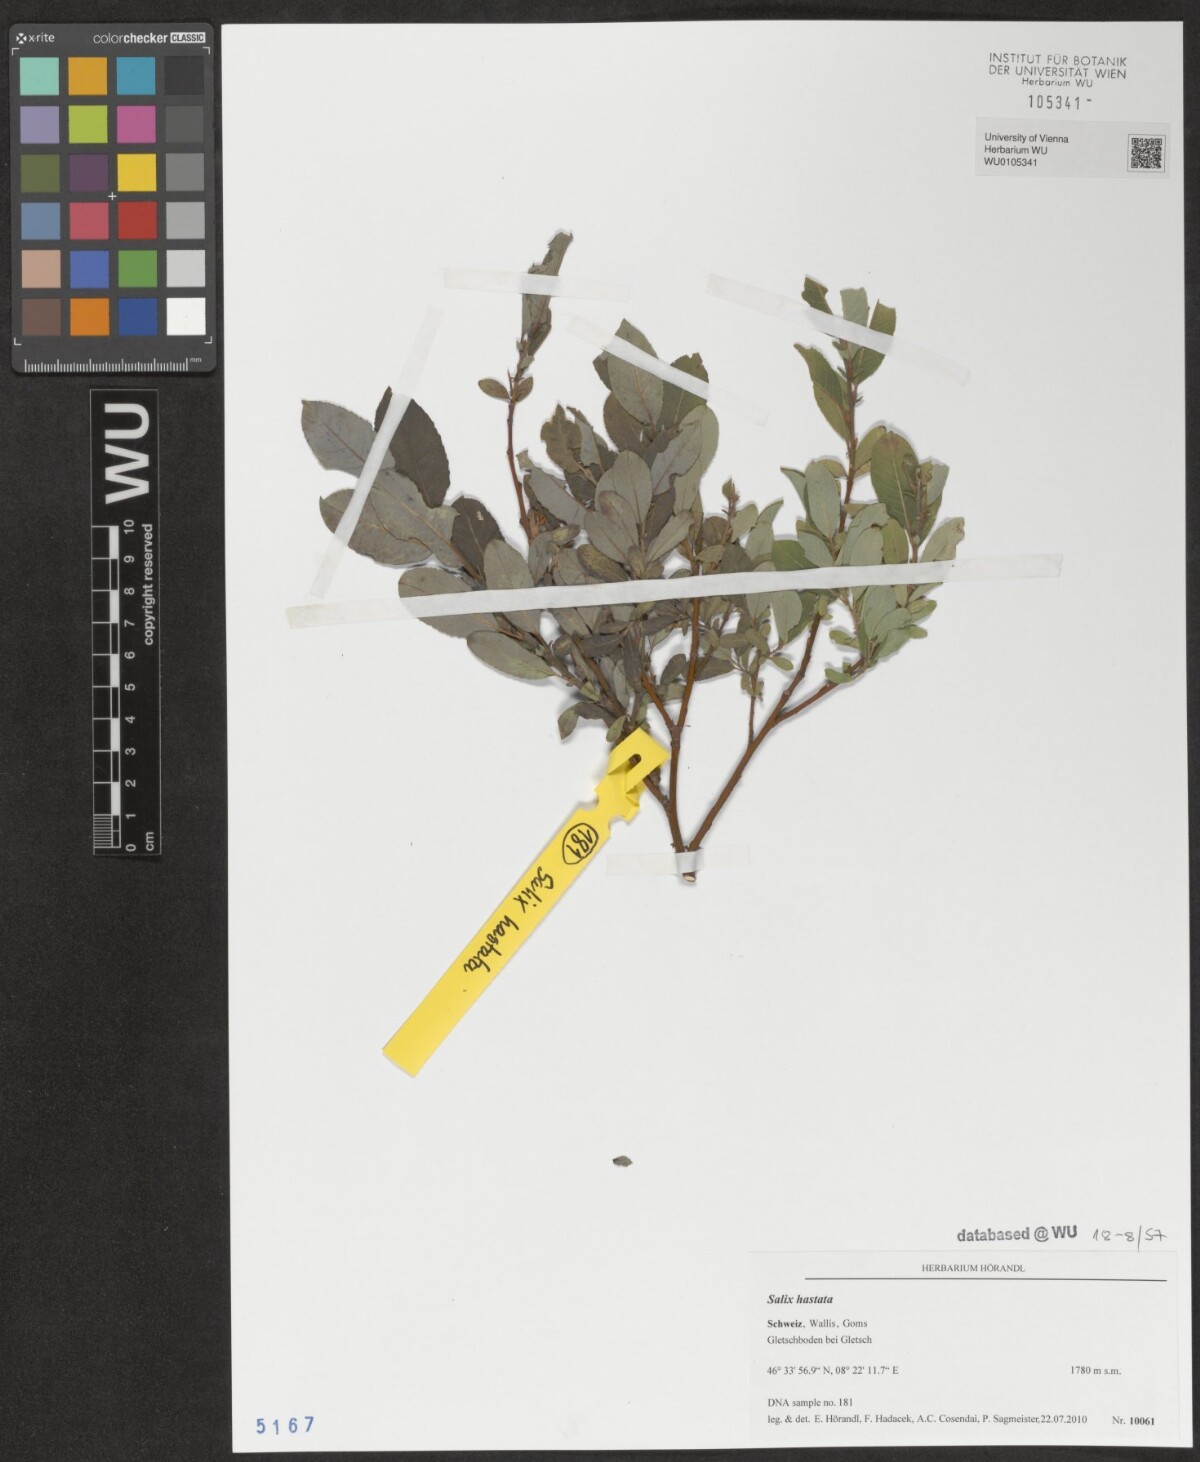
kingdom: Plantae
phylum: Tracheophyta
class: Magnoliopsida
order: Malpighiales
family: Salicaceae
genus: Salix
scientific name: Salix hastata
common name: Halberd willow
